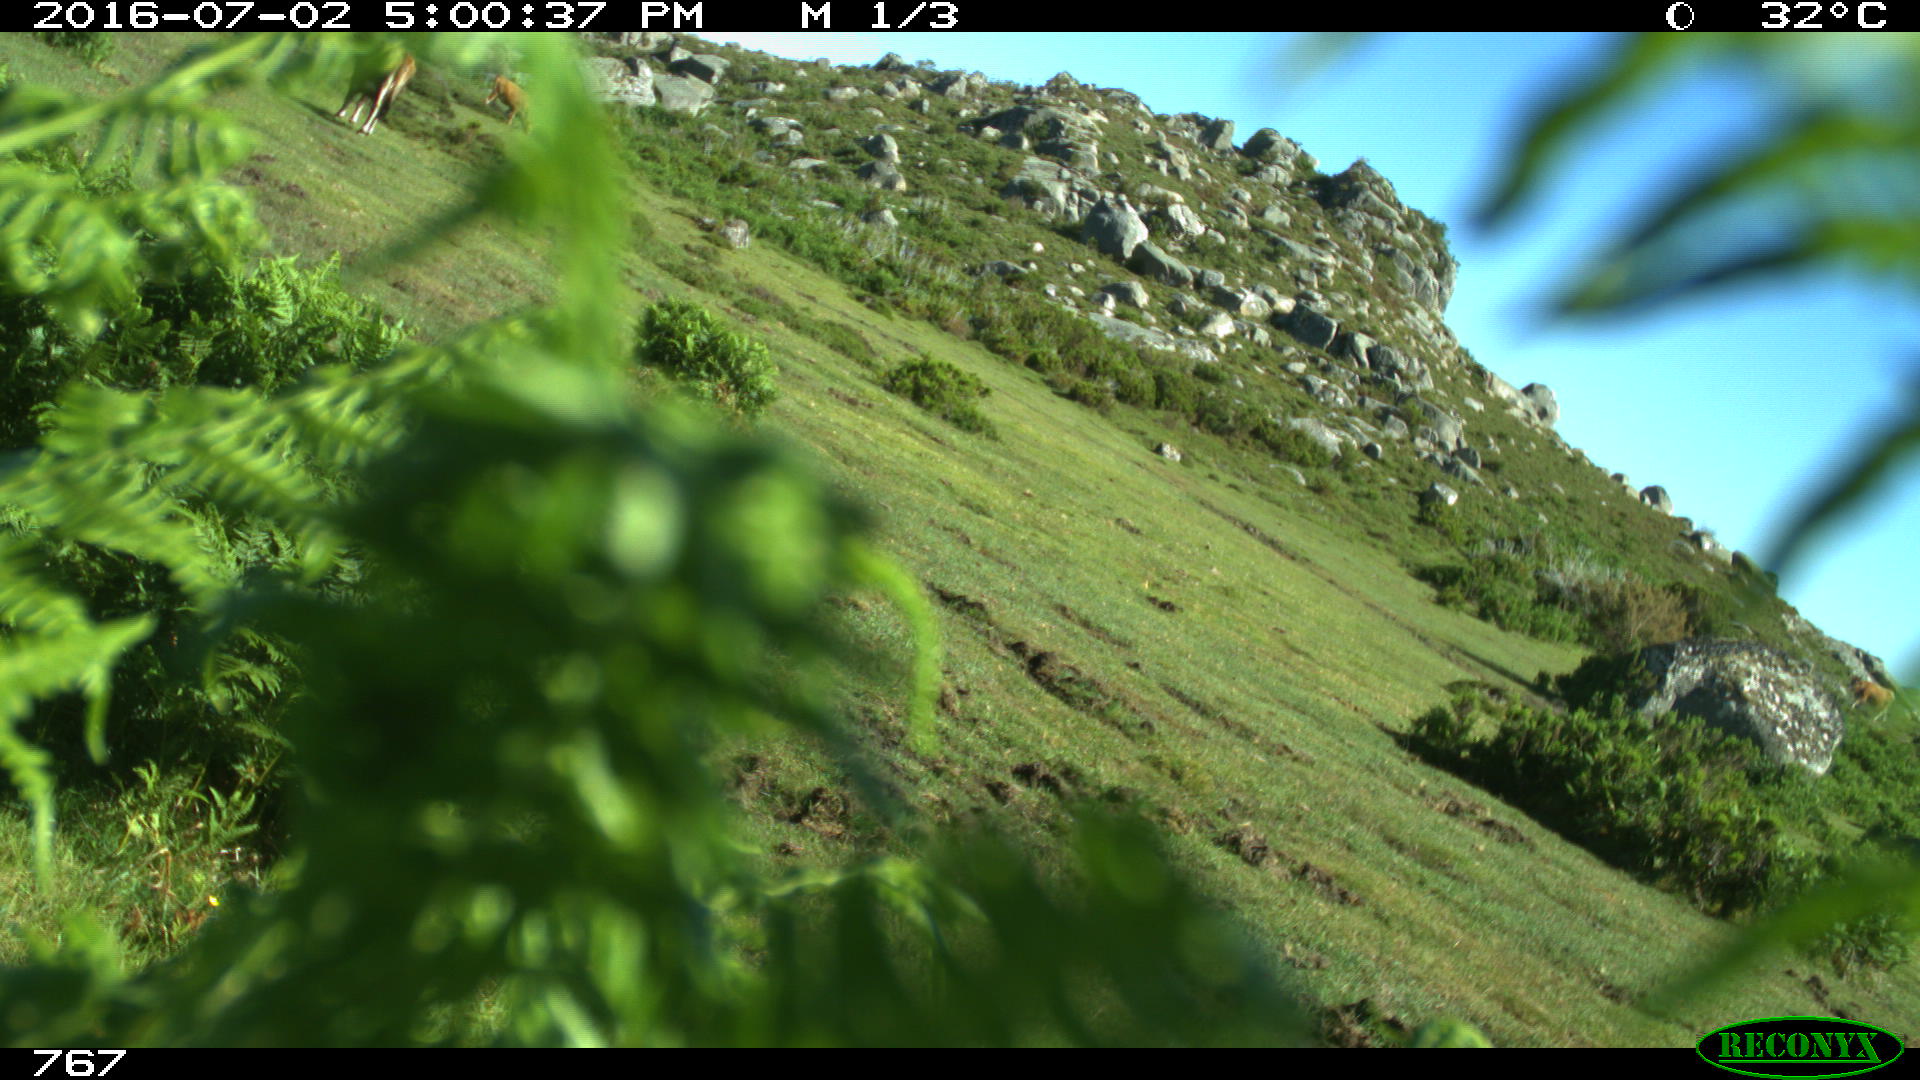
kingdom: Animalia
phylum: Chordata
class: Mammalia
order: Artiodactyla
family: Bovidae
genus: Bos
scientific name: Bos taurus
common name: Domesticated cattle
